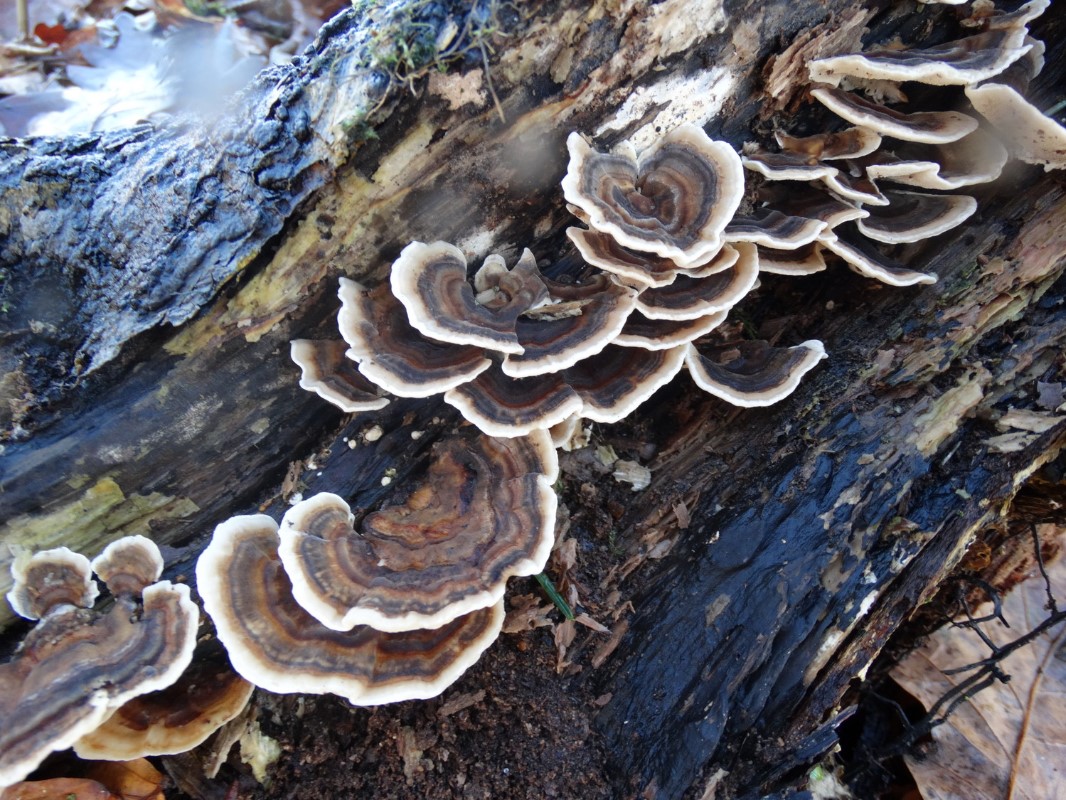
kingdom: Fungi
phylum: Basidiomycota
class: Agaricomycetes
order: Polyporales
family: Polyporaceae
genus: Trametes
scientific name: Trametes versicolor
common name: broget læderporesvamp
